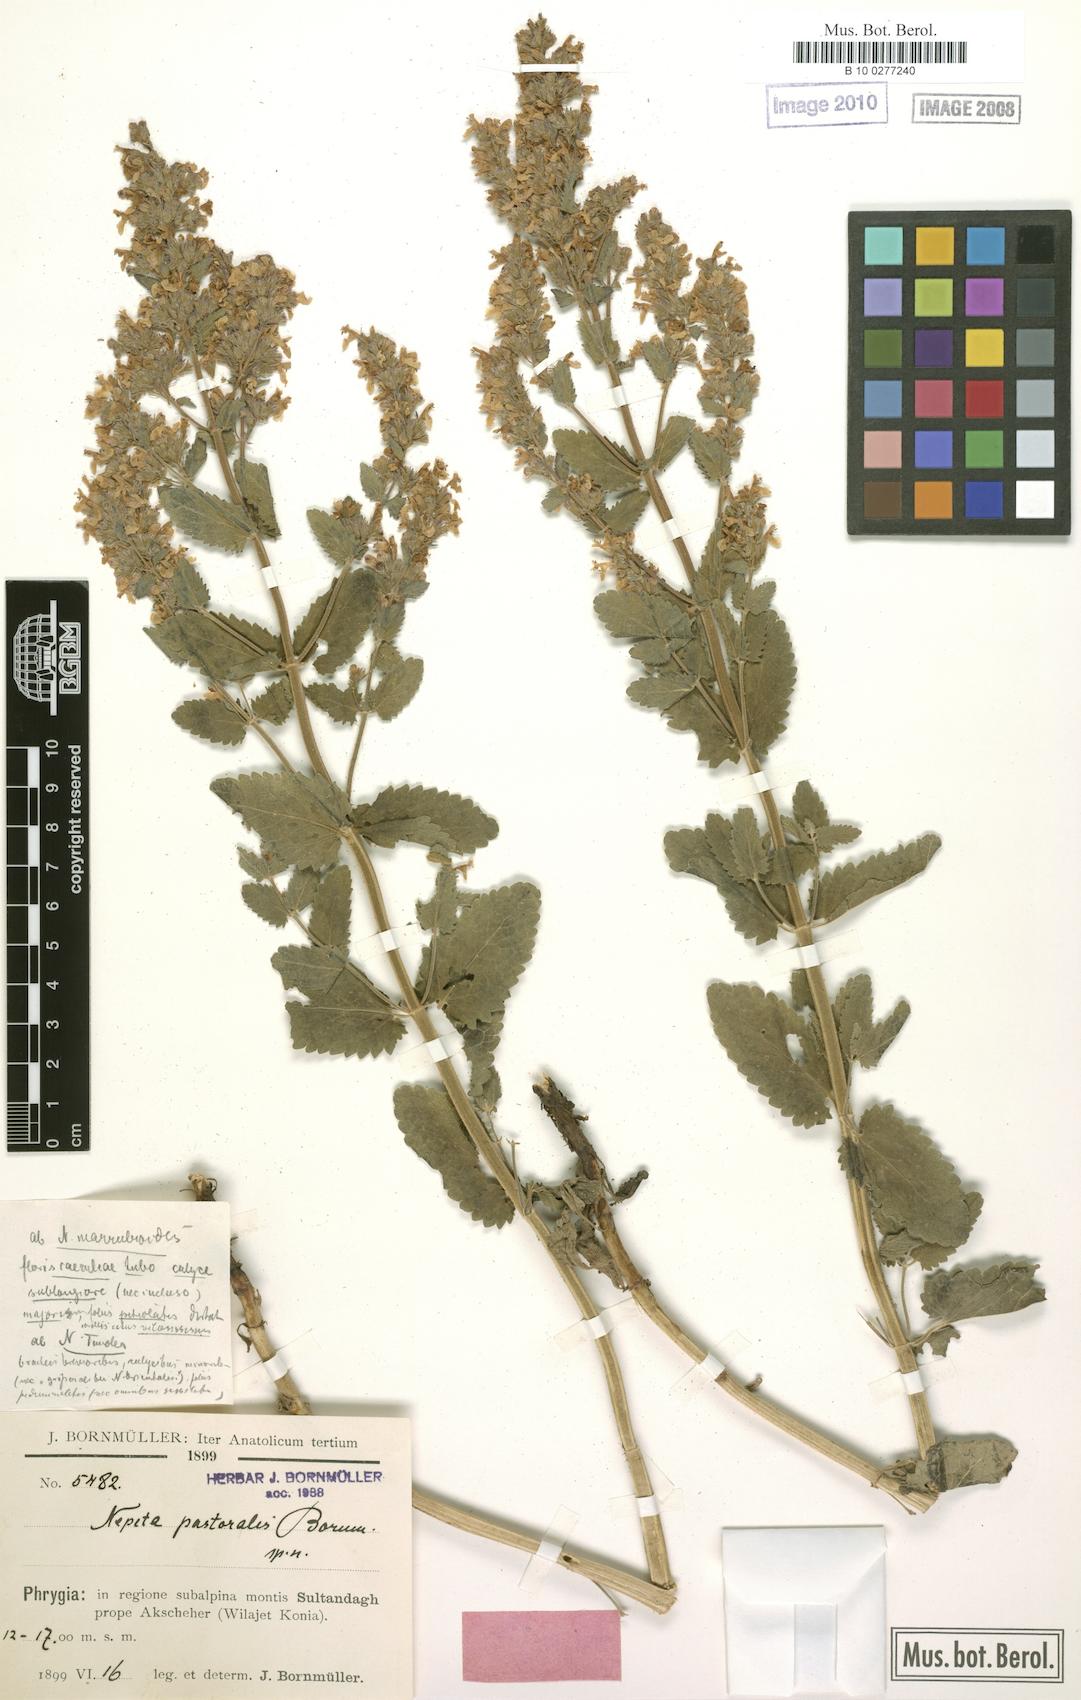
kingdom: Plantae
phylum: Tracheophyta
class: Magnoliopsida
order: Lamiales
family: Lamiaceae
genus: Nepeta
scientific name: Nepeta
